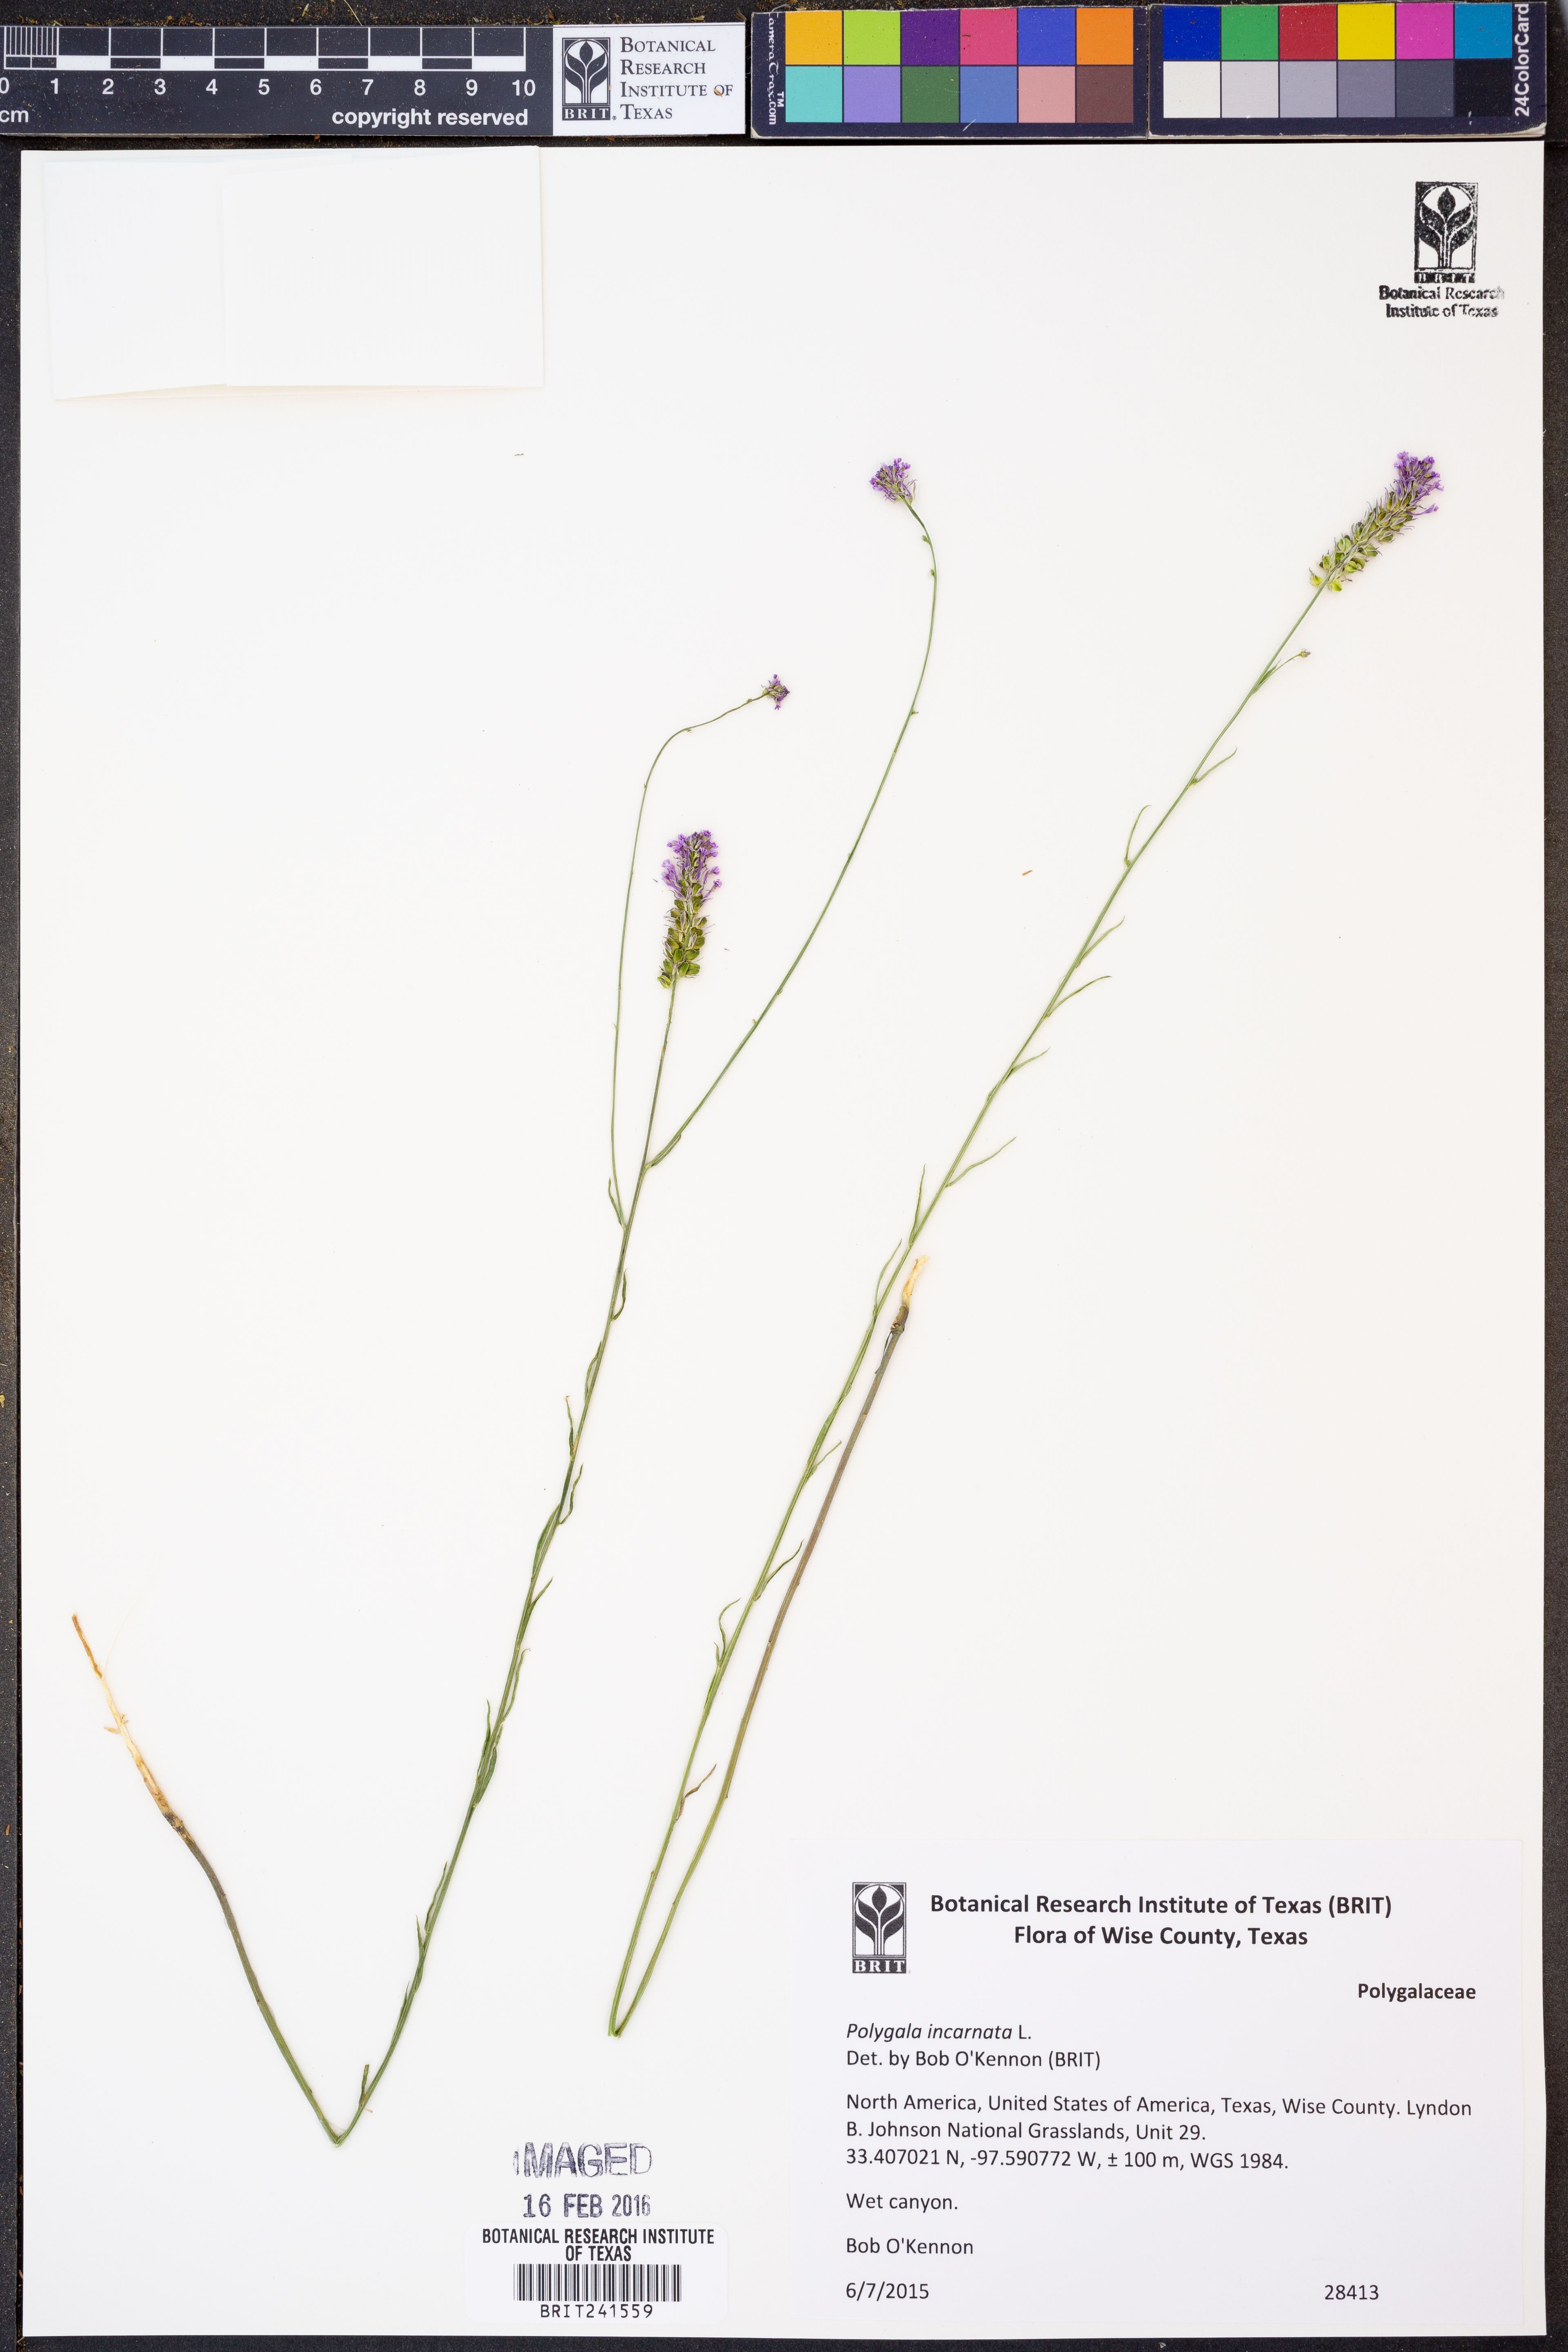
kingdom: Plantae
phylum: Tracheophyta
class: Magnoliopsida
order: Fabales
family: Polygalaceae
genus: Polygala
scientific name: Polygala incarnata
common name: Pink milkwort
